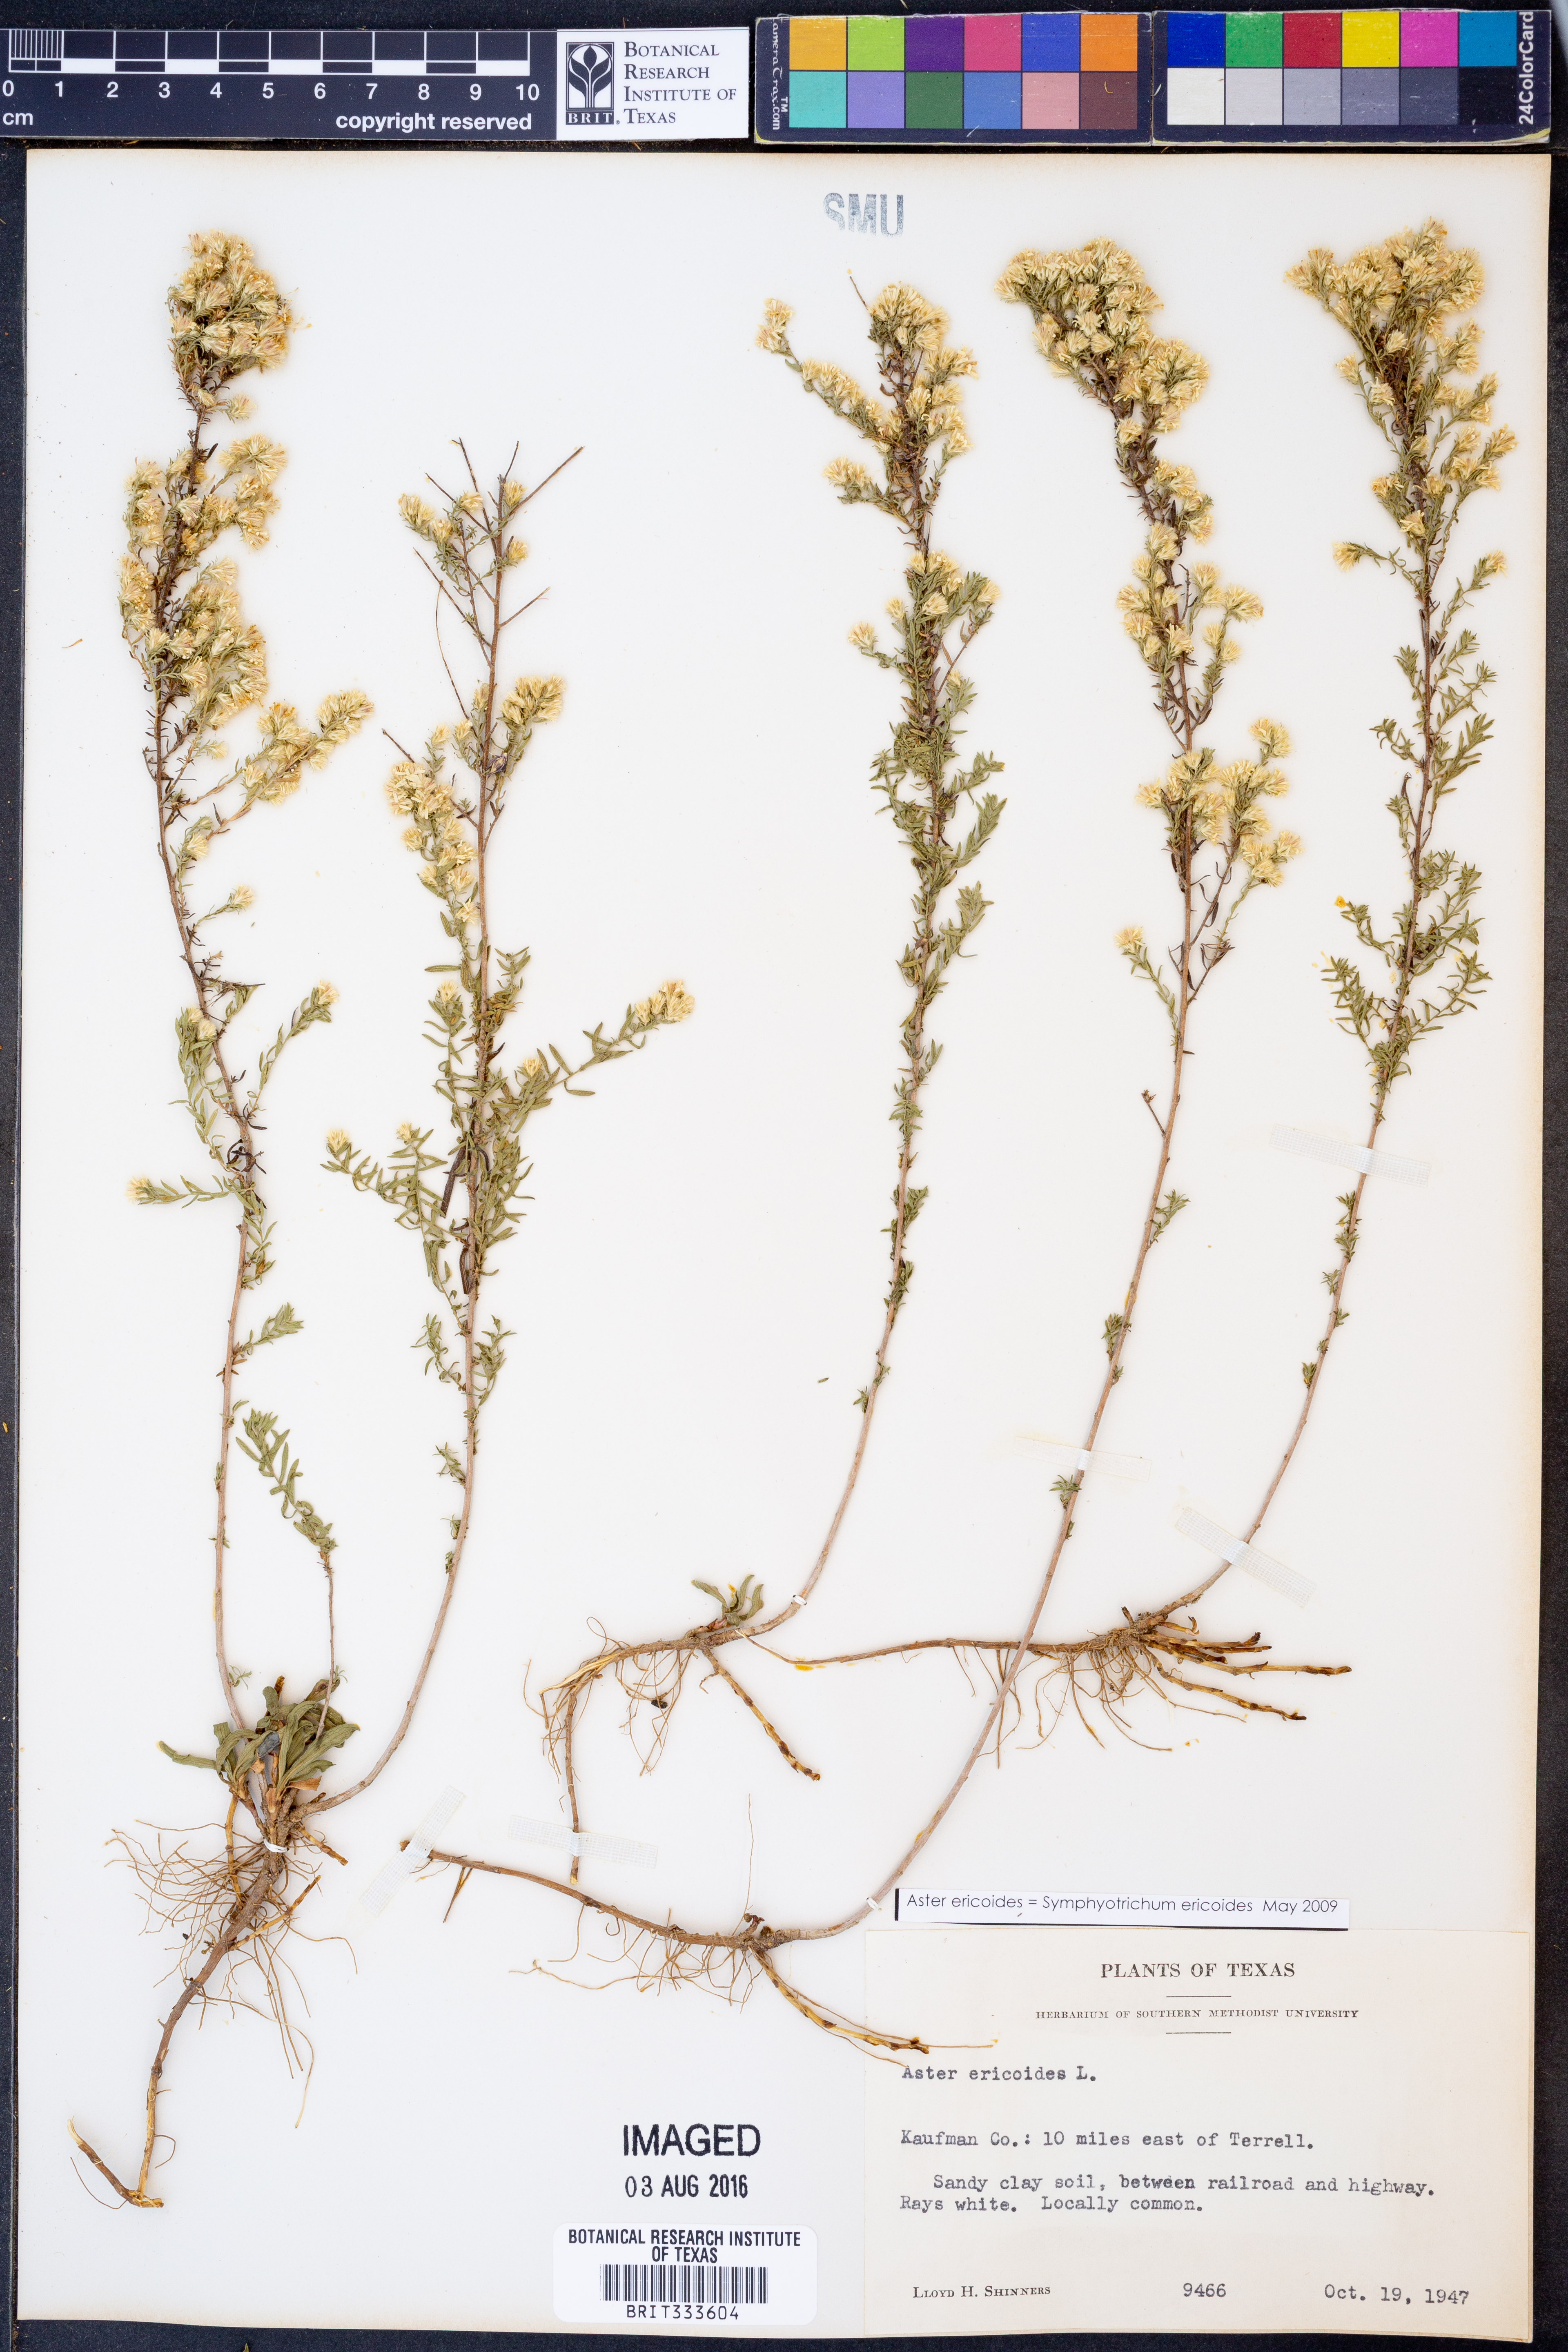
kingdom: Plantae
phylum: Tracheophyta
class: Magnoliopsida
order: Asterales
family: Asteraceae
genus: Symphyotrichum
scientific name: Symphyotrichum ericoides
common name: Heath aster
